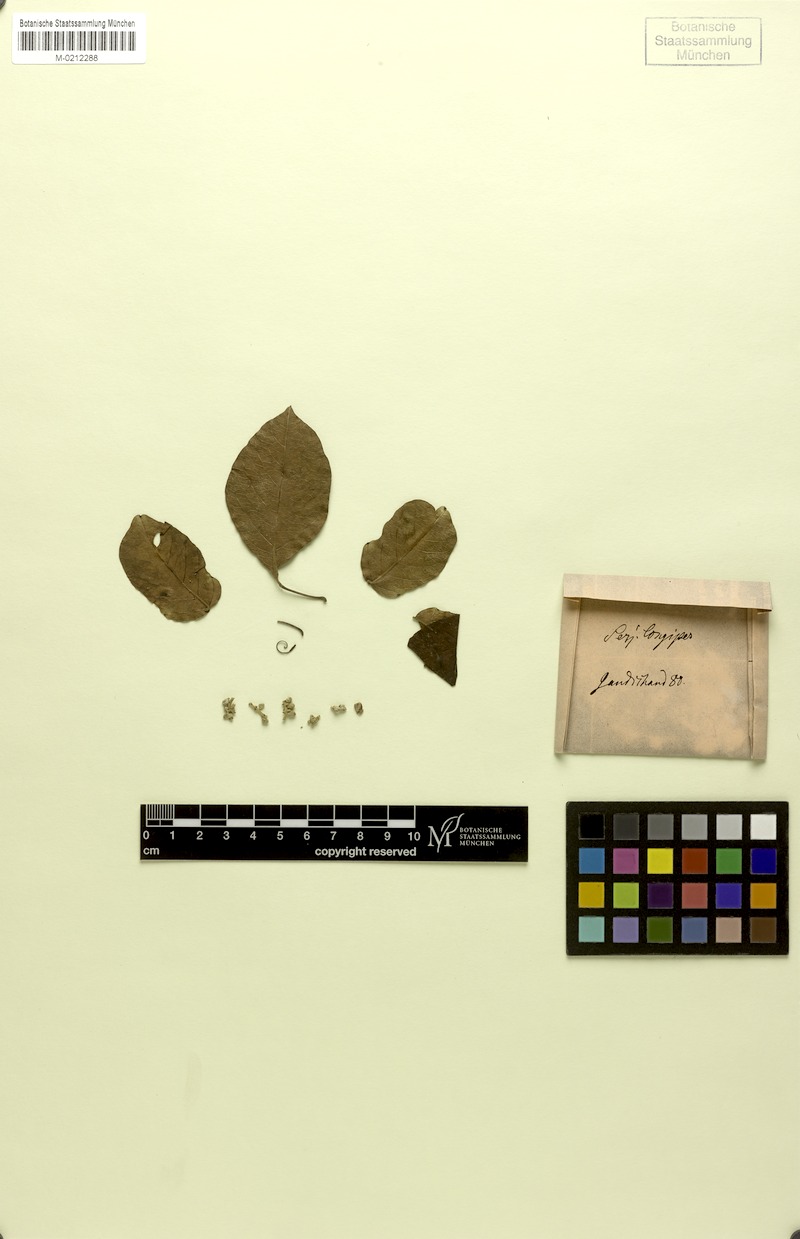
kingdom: Plantae
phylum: Tracheophyta
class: Magnoliopsida
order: Sapindales
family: Sapindaceae
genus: Serjania
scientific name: Serjania longipes
